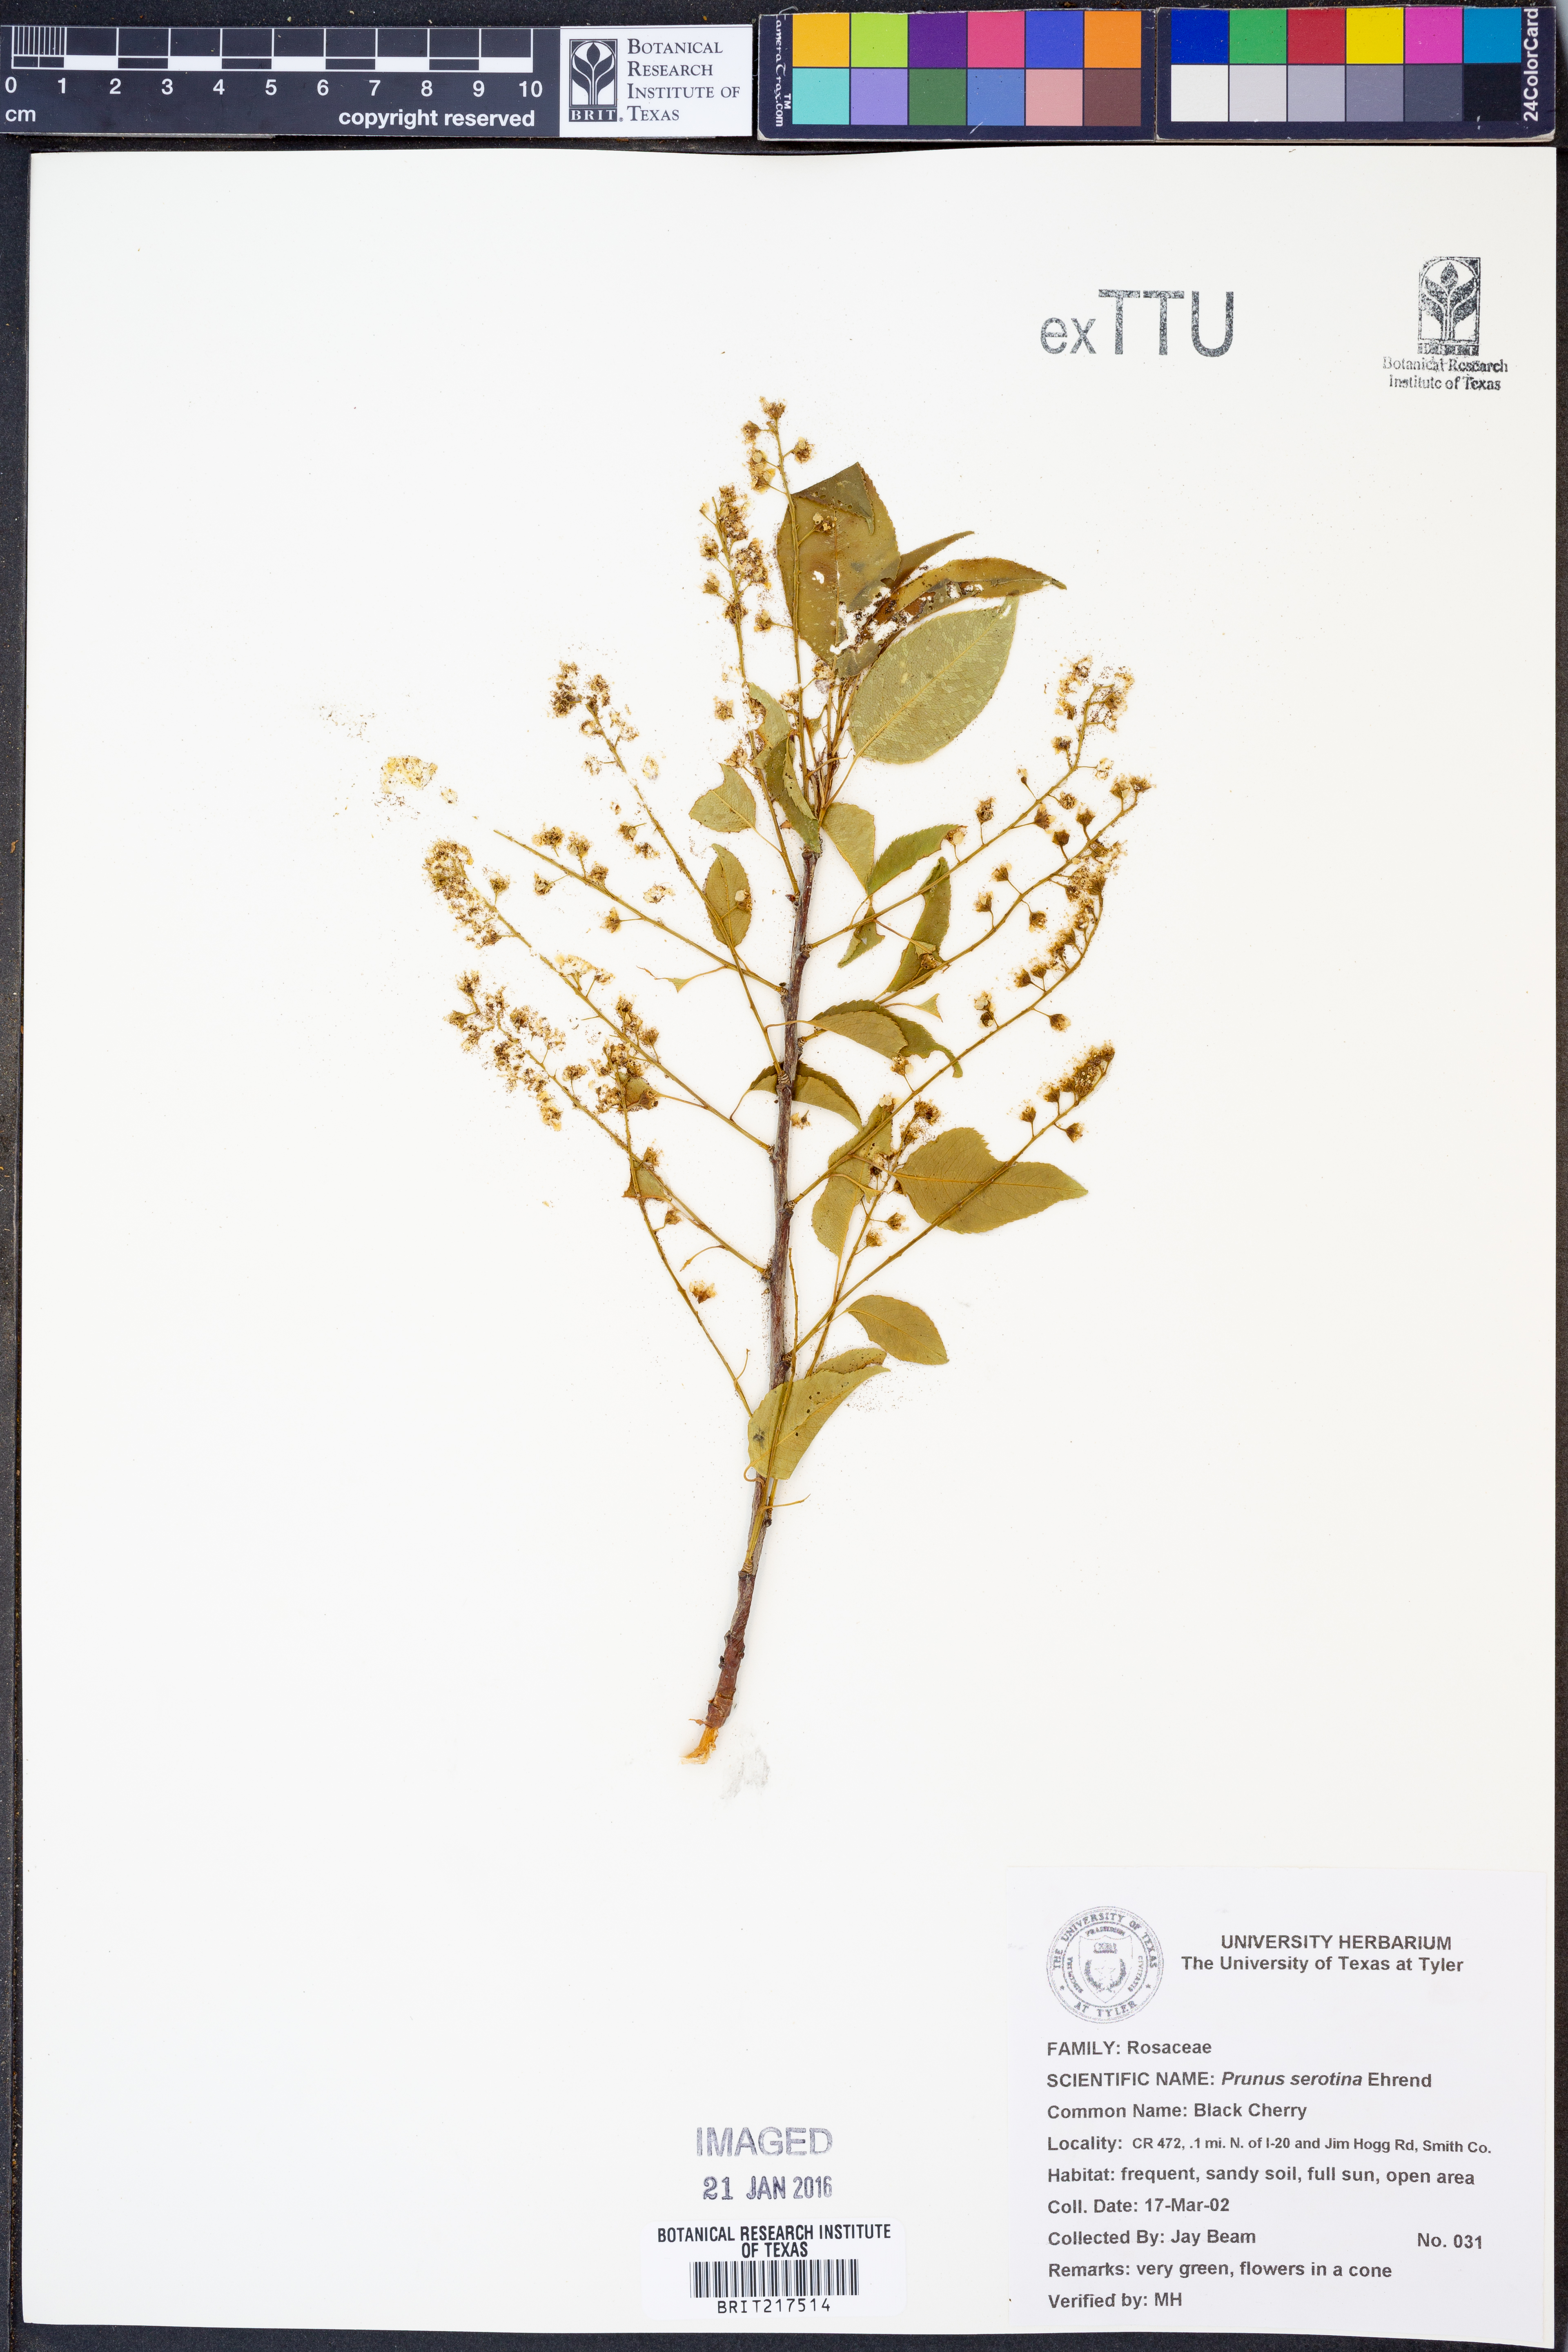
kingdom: Plantae
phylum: Tracheophyta
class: Magnoliopsida
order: Rosales
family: Rosaceae
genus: Prunus
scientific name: Prunus serotina
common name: Black cherry
